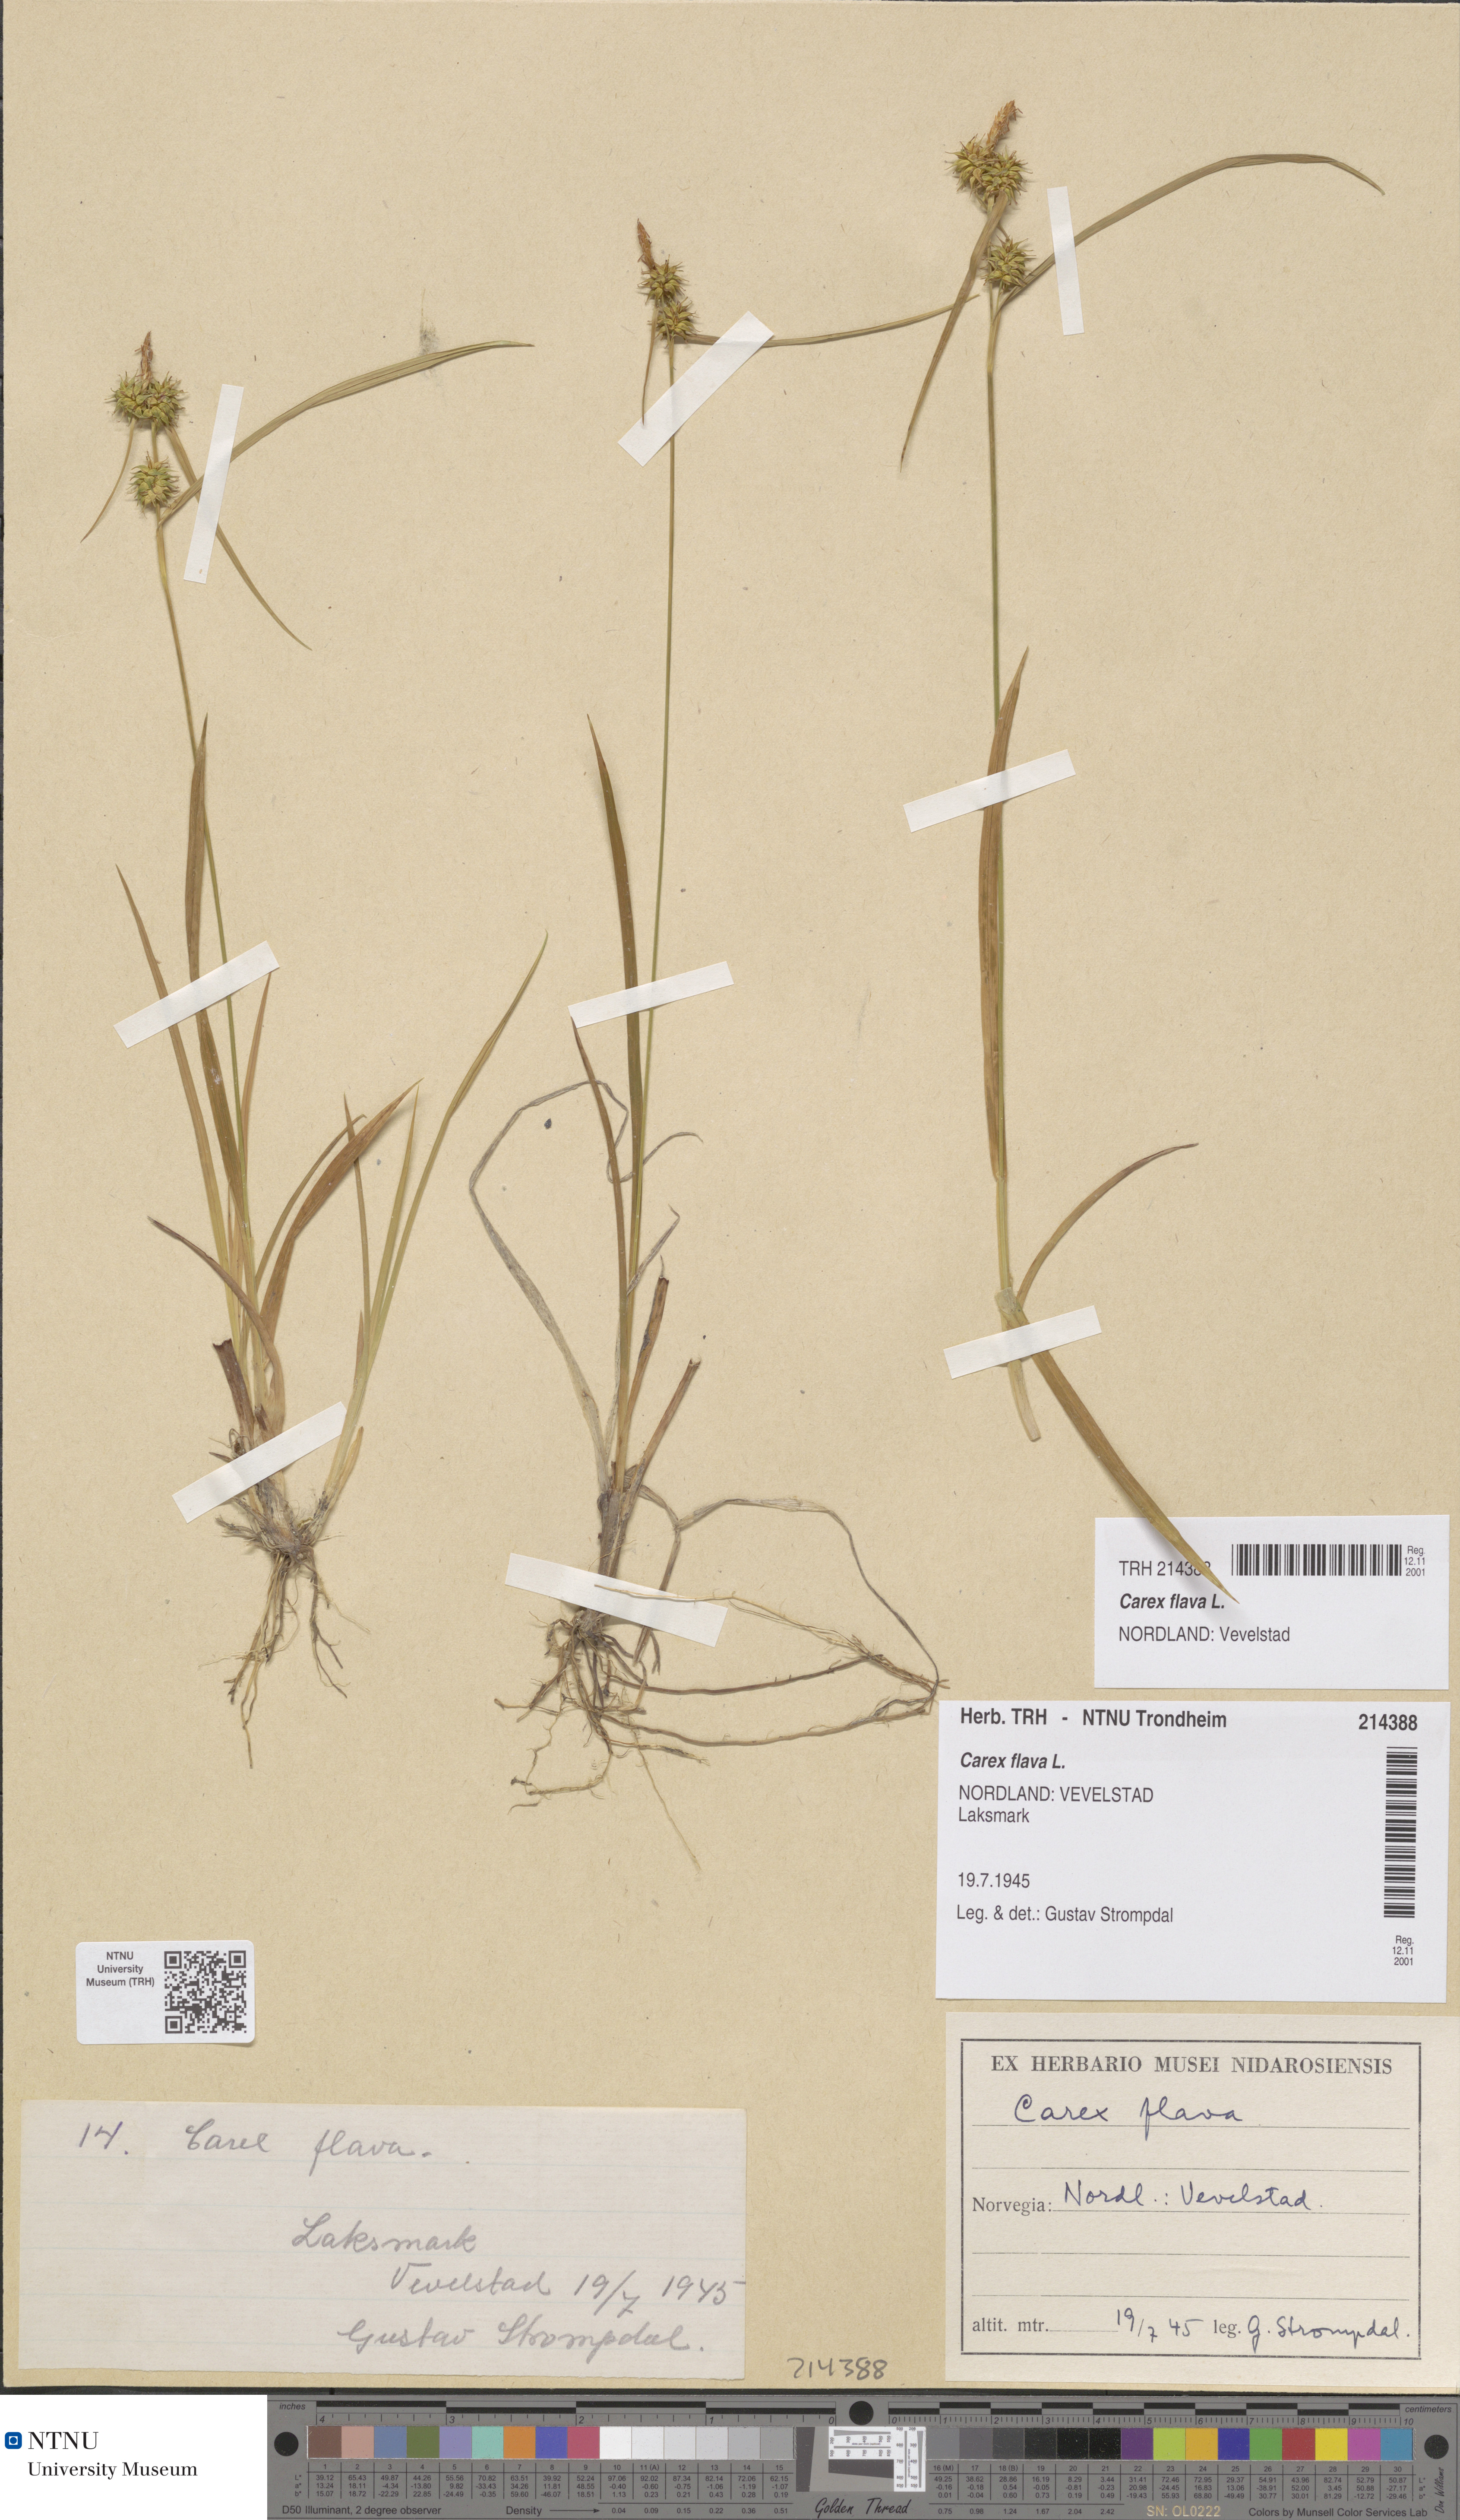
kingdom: Plantae
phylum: Tracheophyta
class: Liliopsida
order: Poales
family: Cyperaceae
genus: Carex
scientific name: Carex flava
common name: Large yellow-sedge
